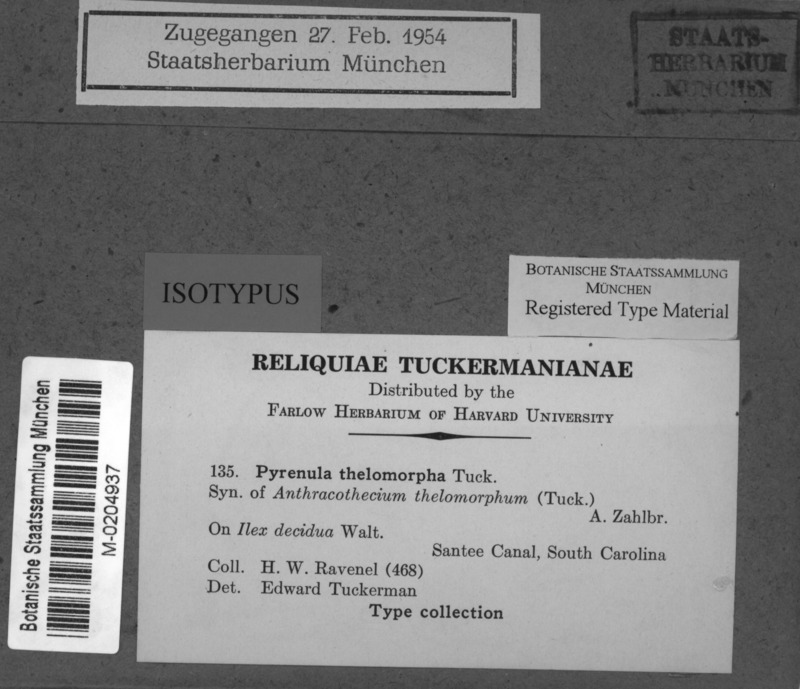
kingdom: Fungi
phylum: Ascomycota
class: Eurotiomycetes
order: Pyrenulales
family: Pyrenulaceae
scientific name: Pyrenulaceae
